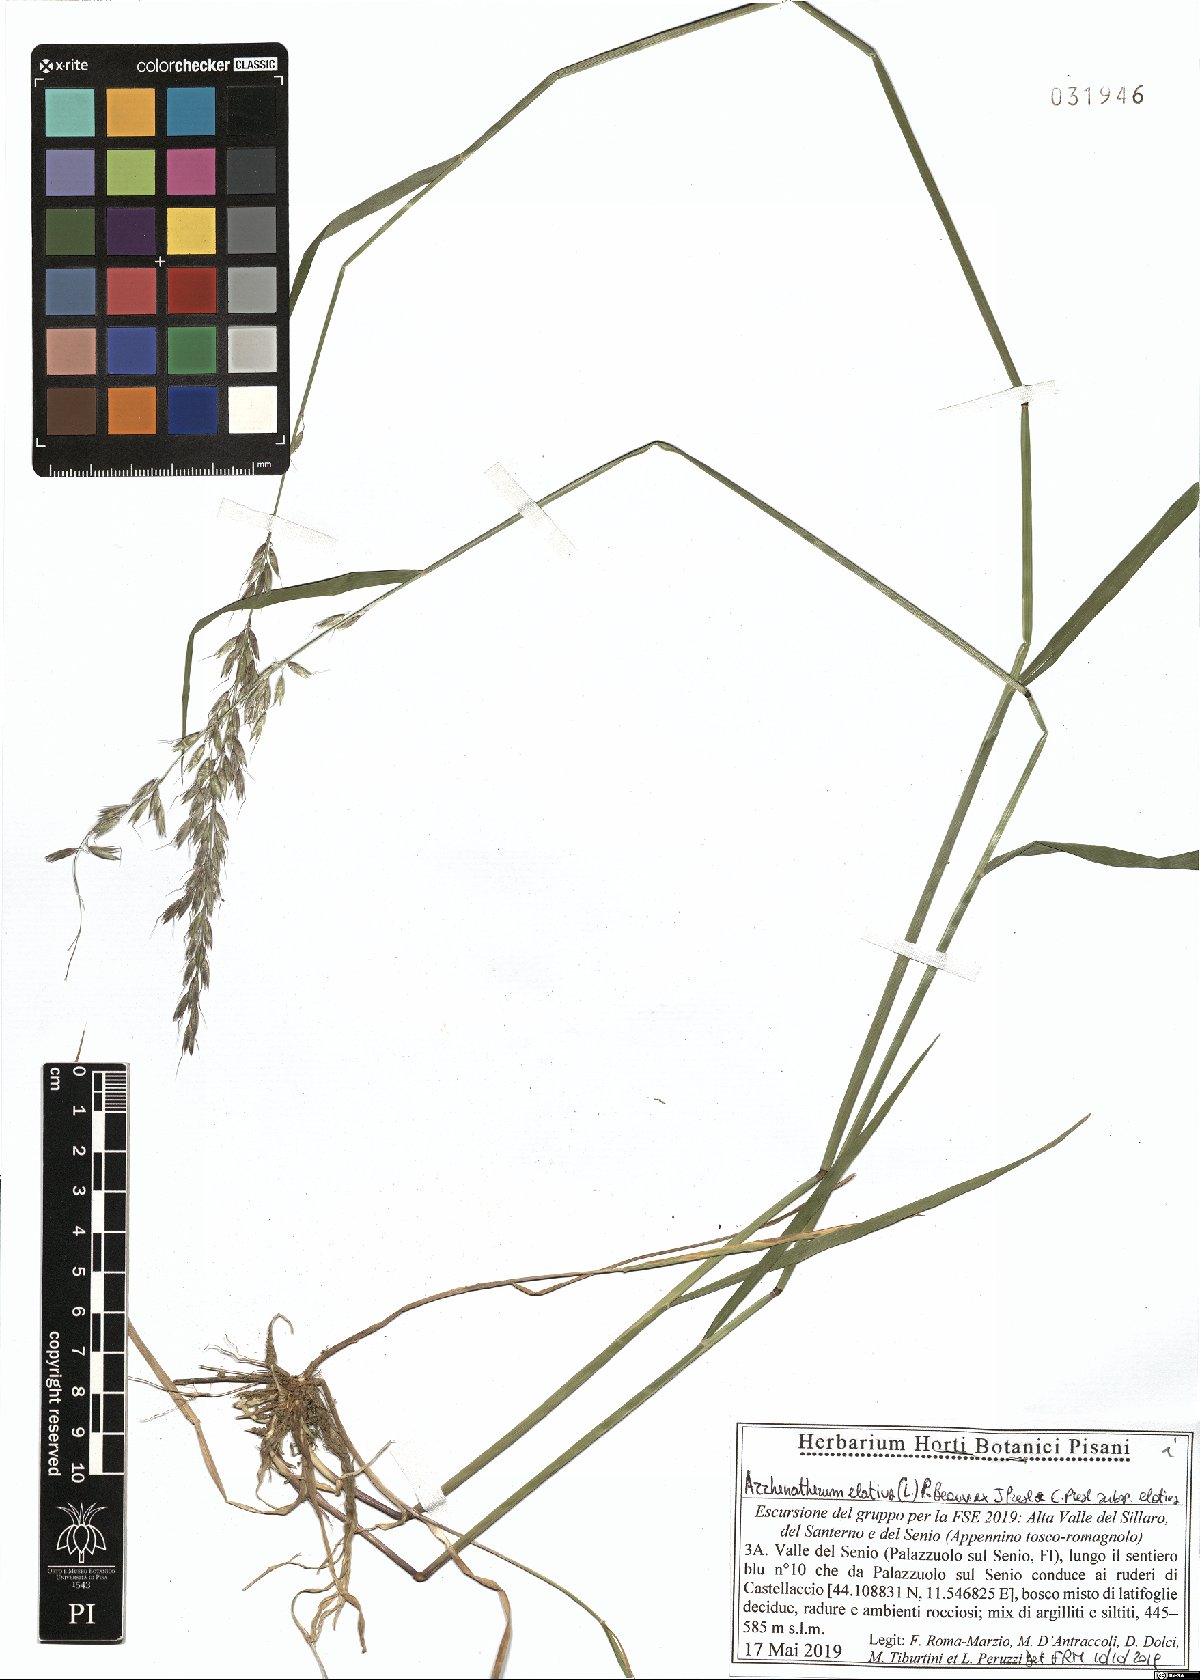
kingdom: Plantae
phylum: Tracheophyta
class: Liliopsida
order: Poales
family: Poaceae
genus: Arrhenatherum
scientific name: Arrhenatherum elatius
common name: Tall oatgrass
